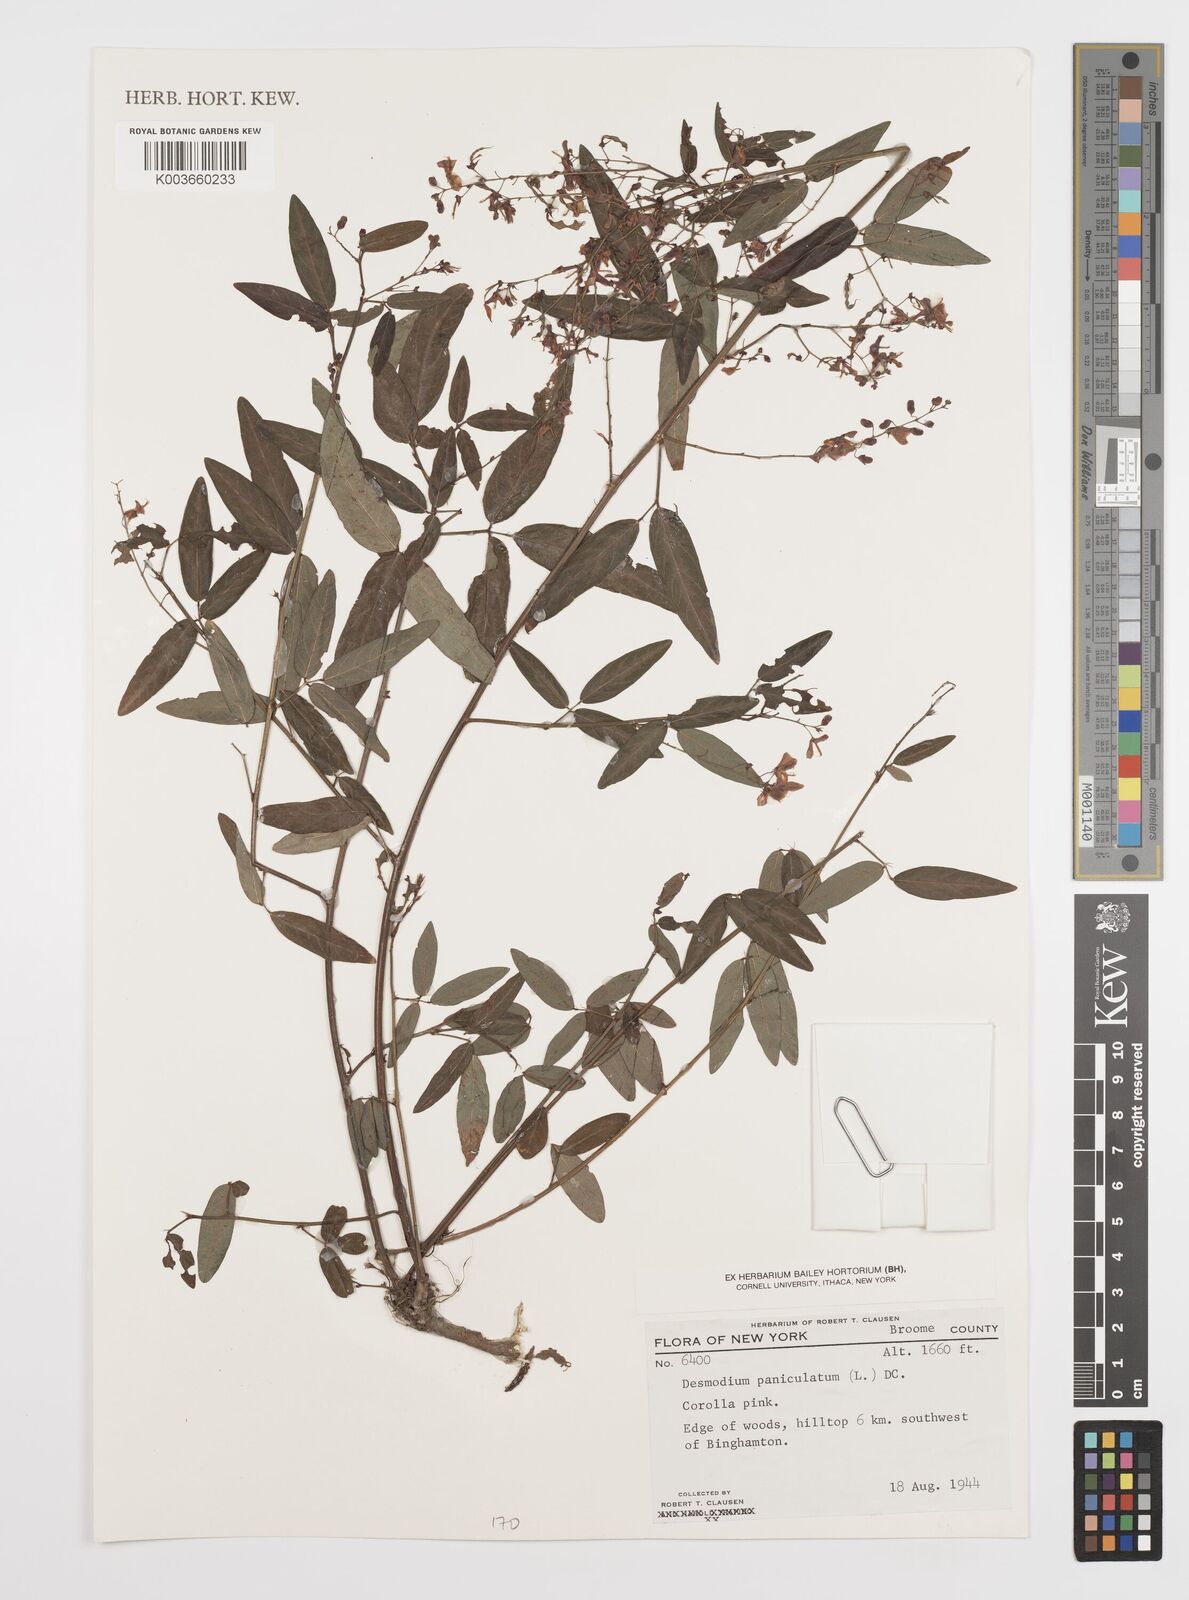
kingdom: Plantae
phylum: Tracheophyta
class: Magnoliopsida
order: Fabales
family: Fabaceae
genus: Desmodium
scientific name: Desmodium paniculatum
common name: Panicled tick-clover
